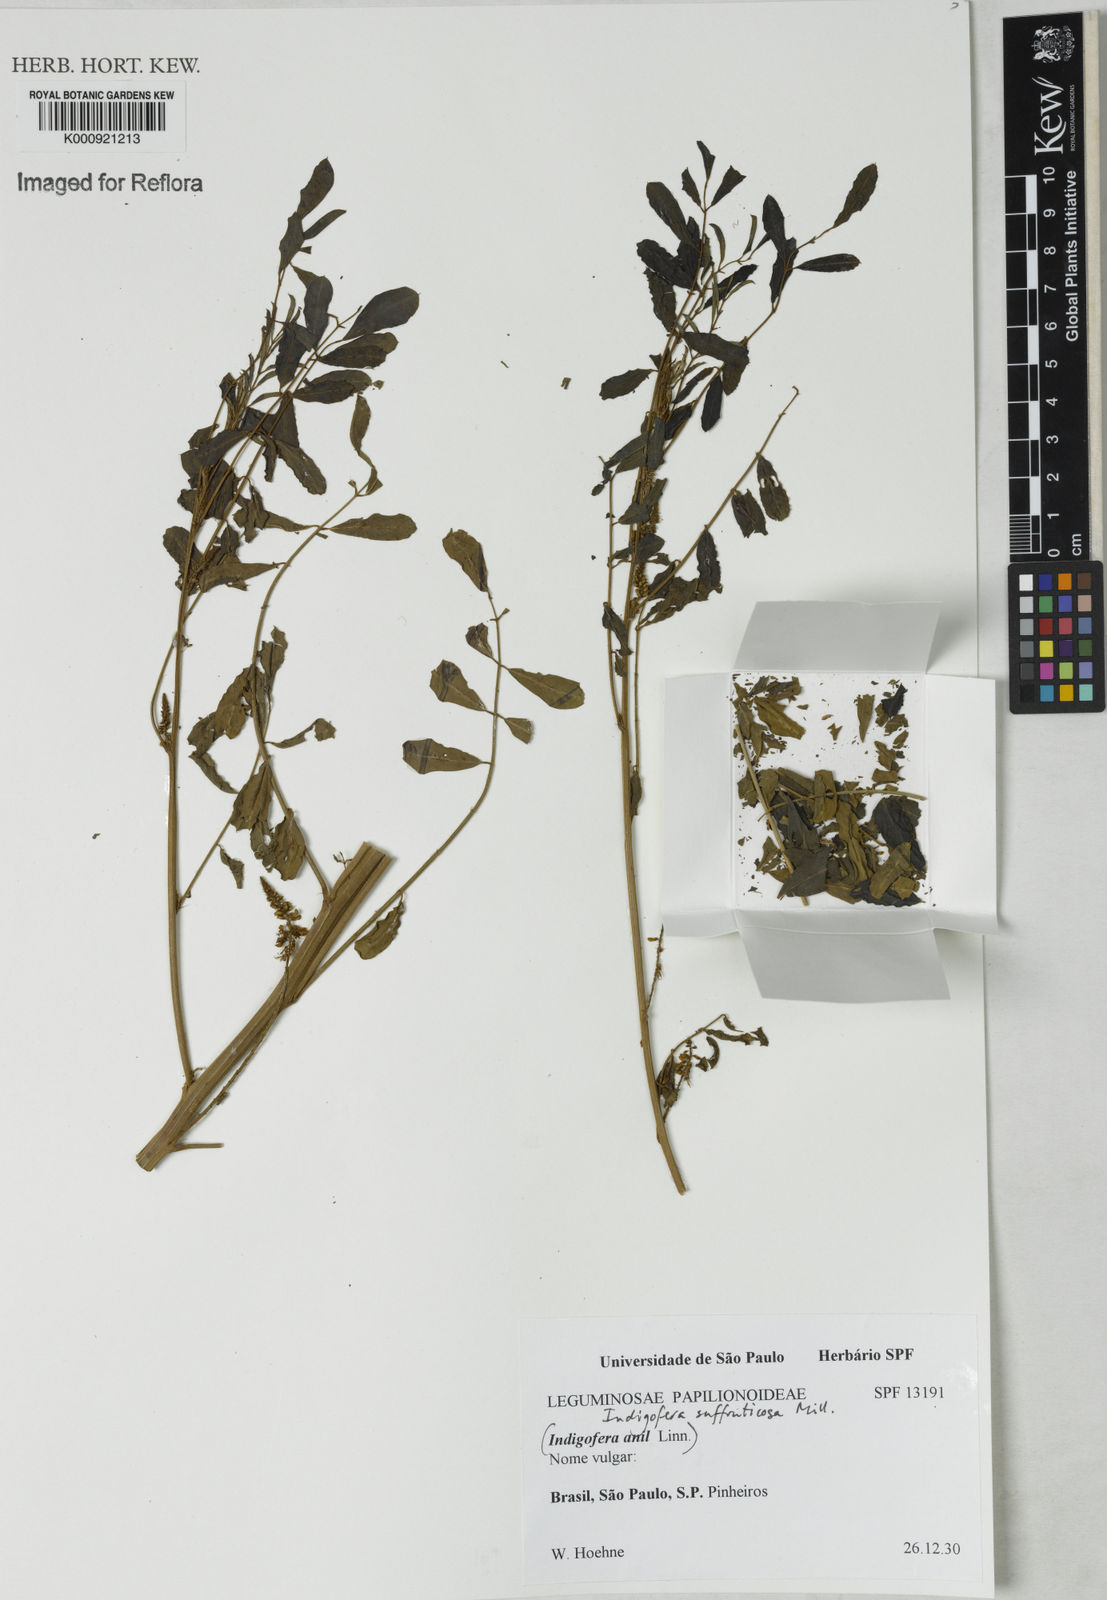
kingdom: Plantae
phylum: Tracheophyta
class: Magnoliopsida
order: Fabales
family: Fabaceae
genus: Indigofera
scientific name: Indigofera suffruticosa
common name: Anil de pasto
